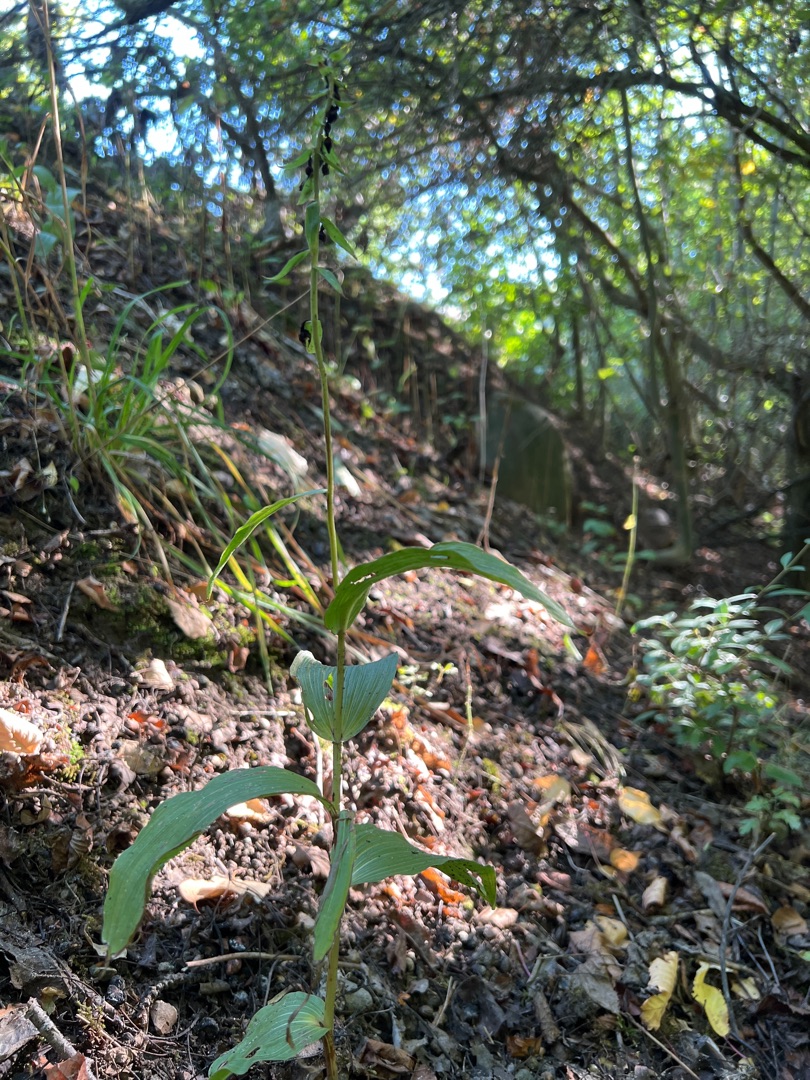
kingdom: Plantae
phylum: Tracheophyta
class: Liliopsida
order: Asparagales
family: Orchidaceae
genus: Epipactis
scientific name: Epipactis helleborine
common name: Skov-hullæbe
